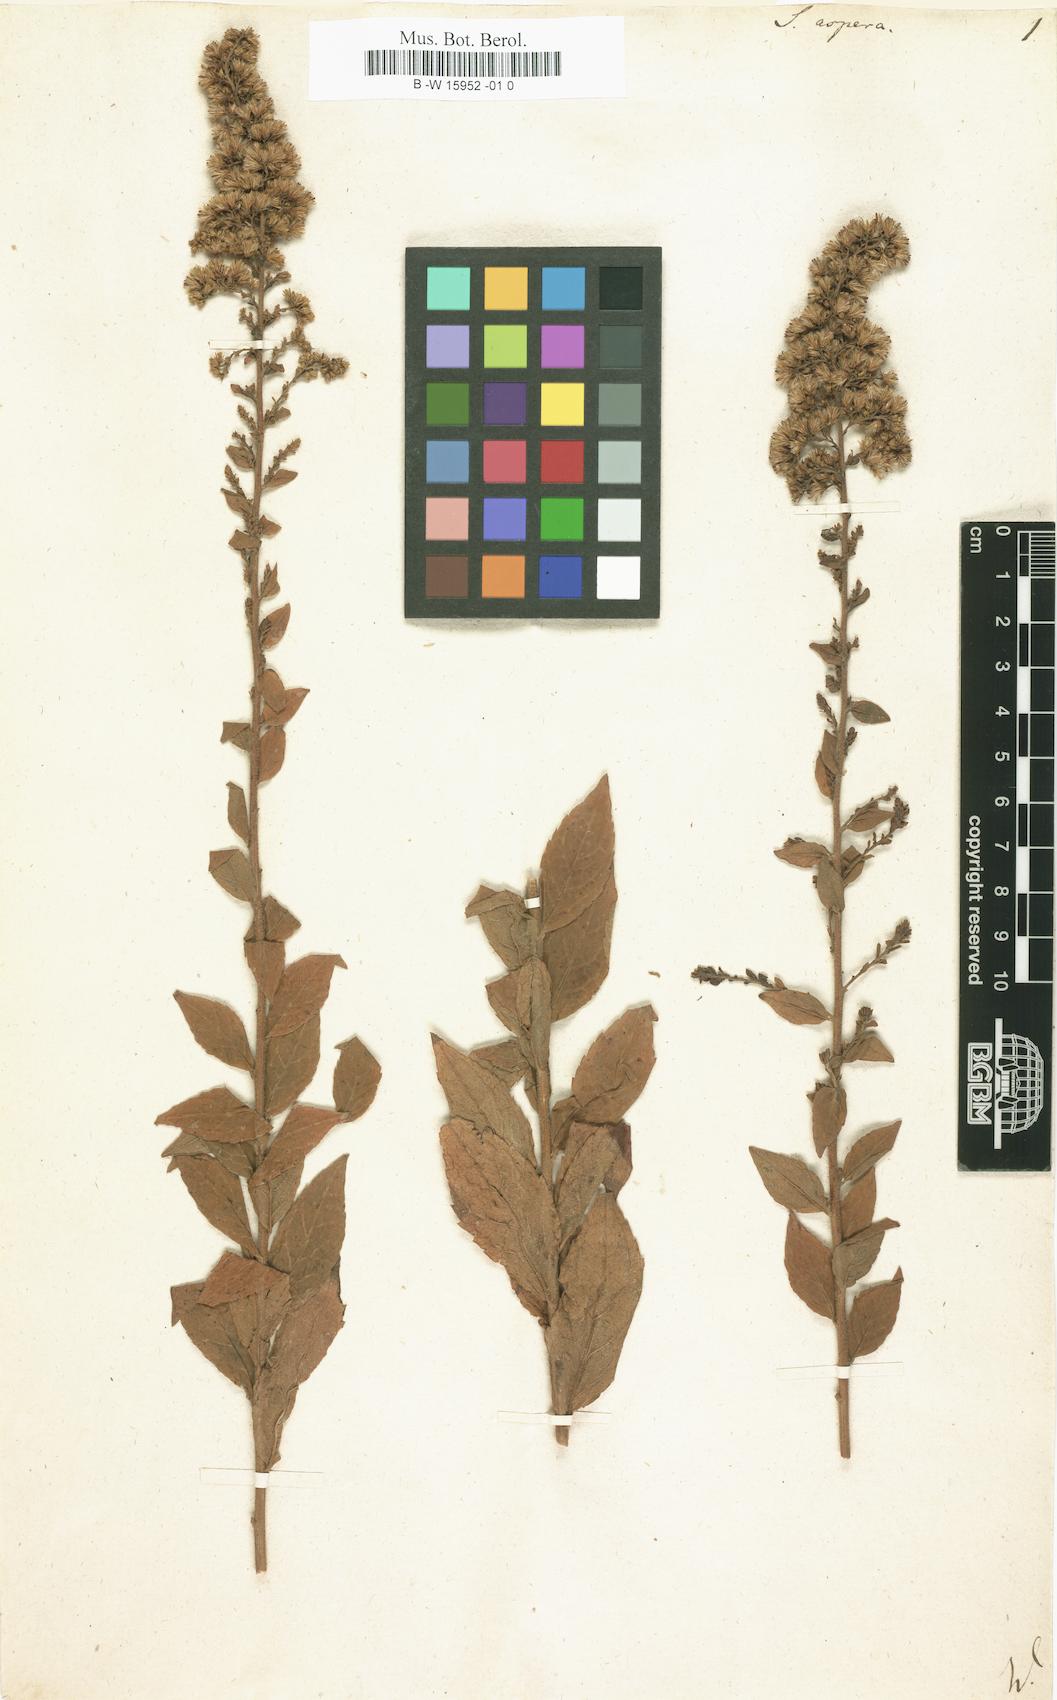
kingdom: Plantae
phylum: Tracheophyta
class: Magnoliopsida
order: Asterales
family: Asteraceae
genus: Solidago
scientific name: Solidago rugosa
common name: Rough-stemmed goldenrod
